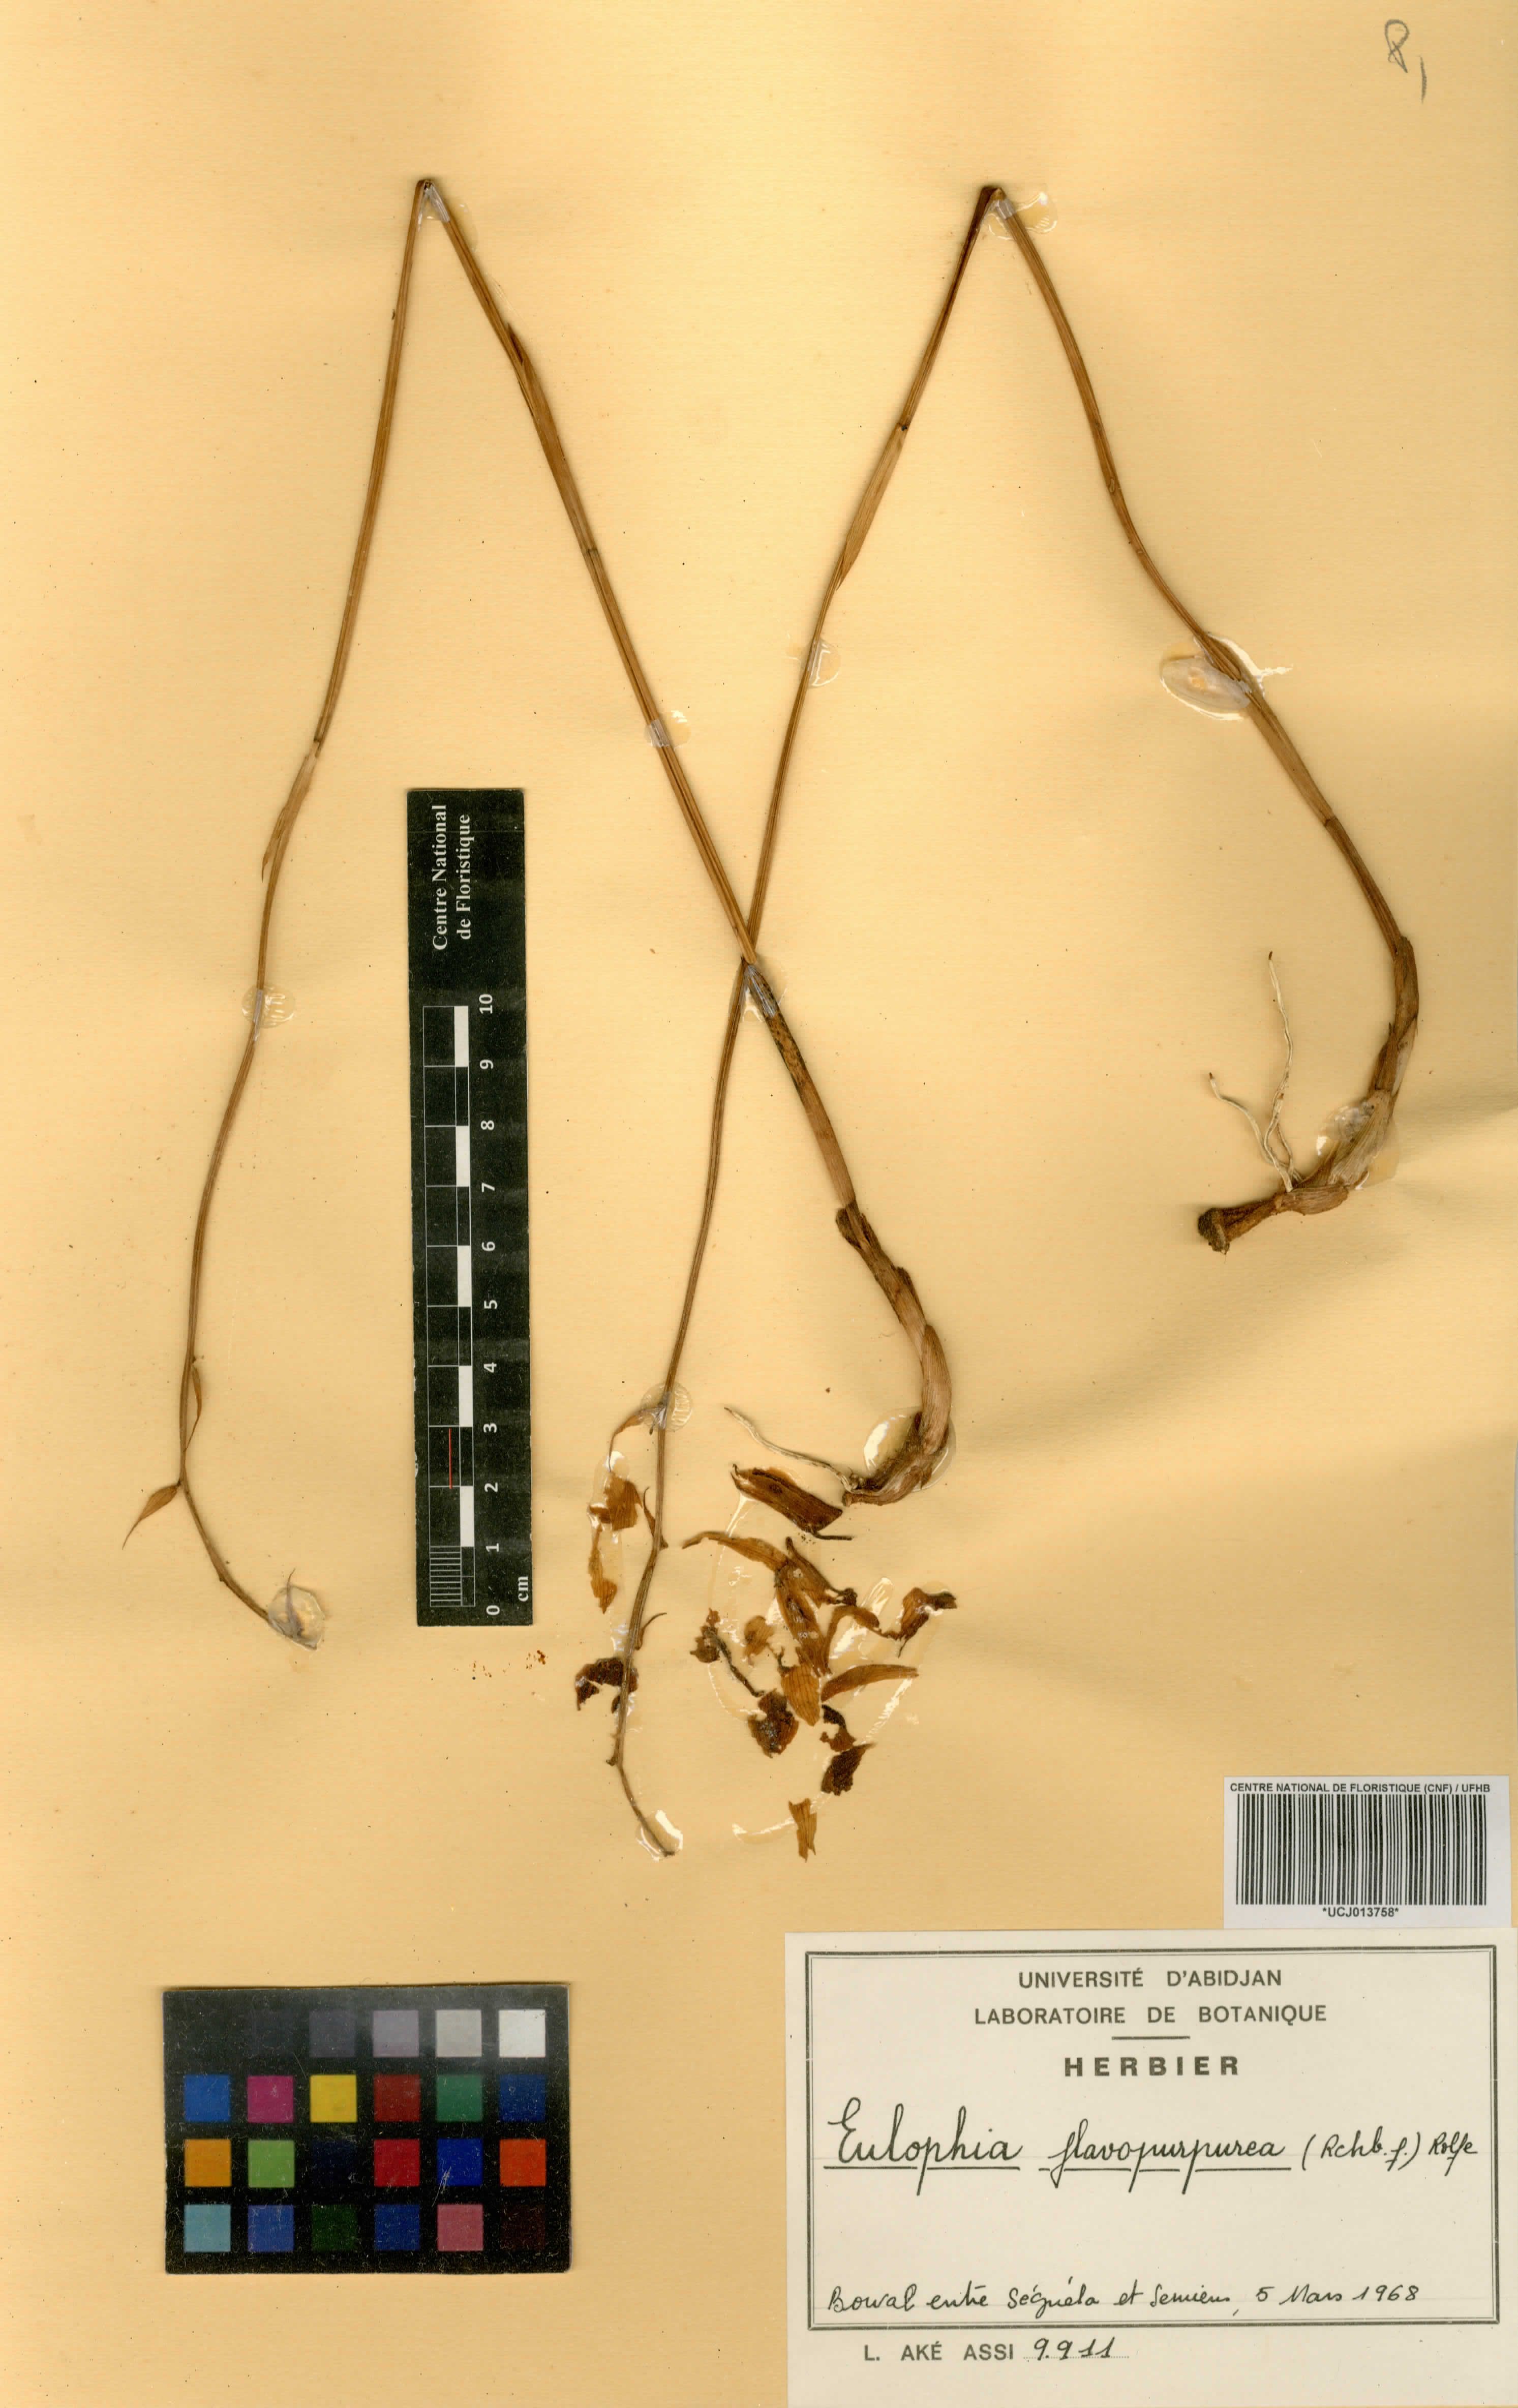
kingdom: Plantae
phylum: Tracheophyta
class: Liliopsida
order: Asparagales
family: Orchidaceae
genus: Eulophia
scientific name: Eulophia flavopurpurea
